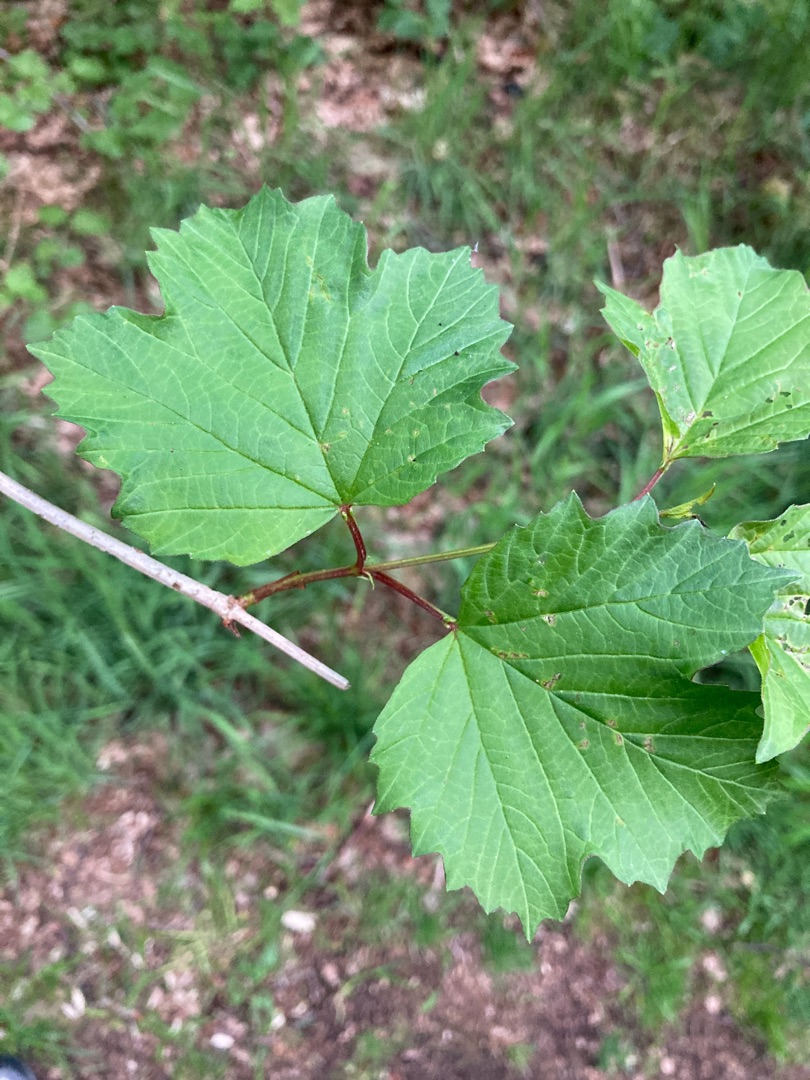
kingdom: Plantae
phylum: Tracheophyta
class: Magnoliopsida
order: Dipsacales
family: Viburnaceae
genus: Viburnum
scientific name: Viburnum opulus
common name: Kvalkved
